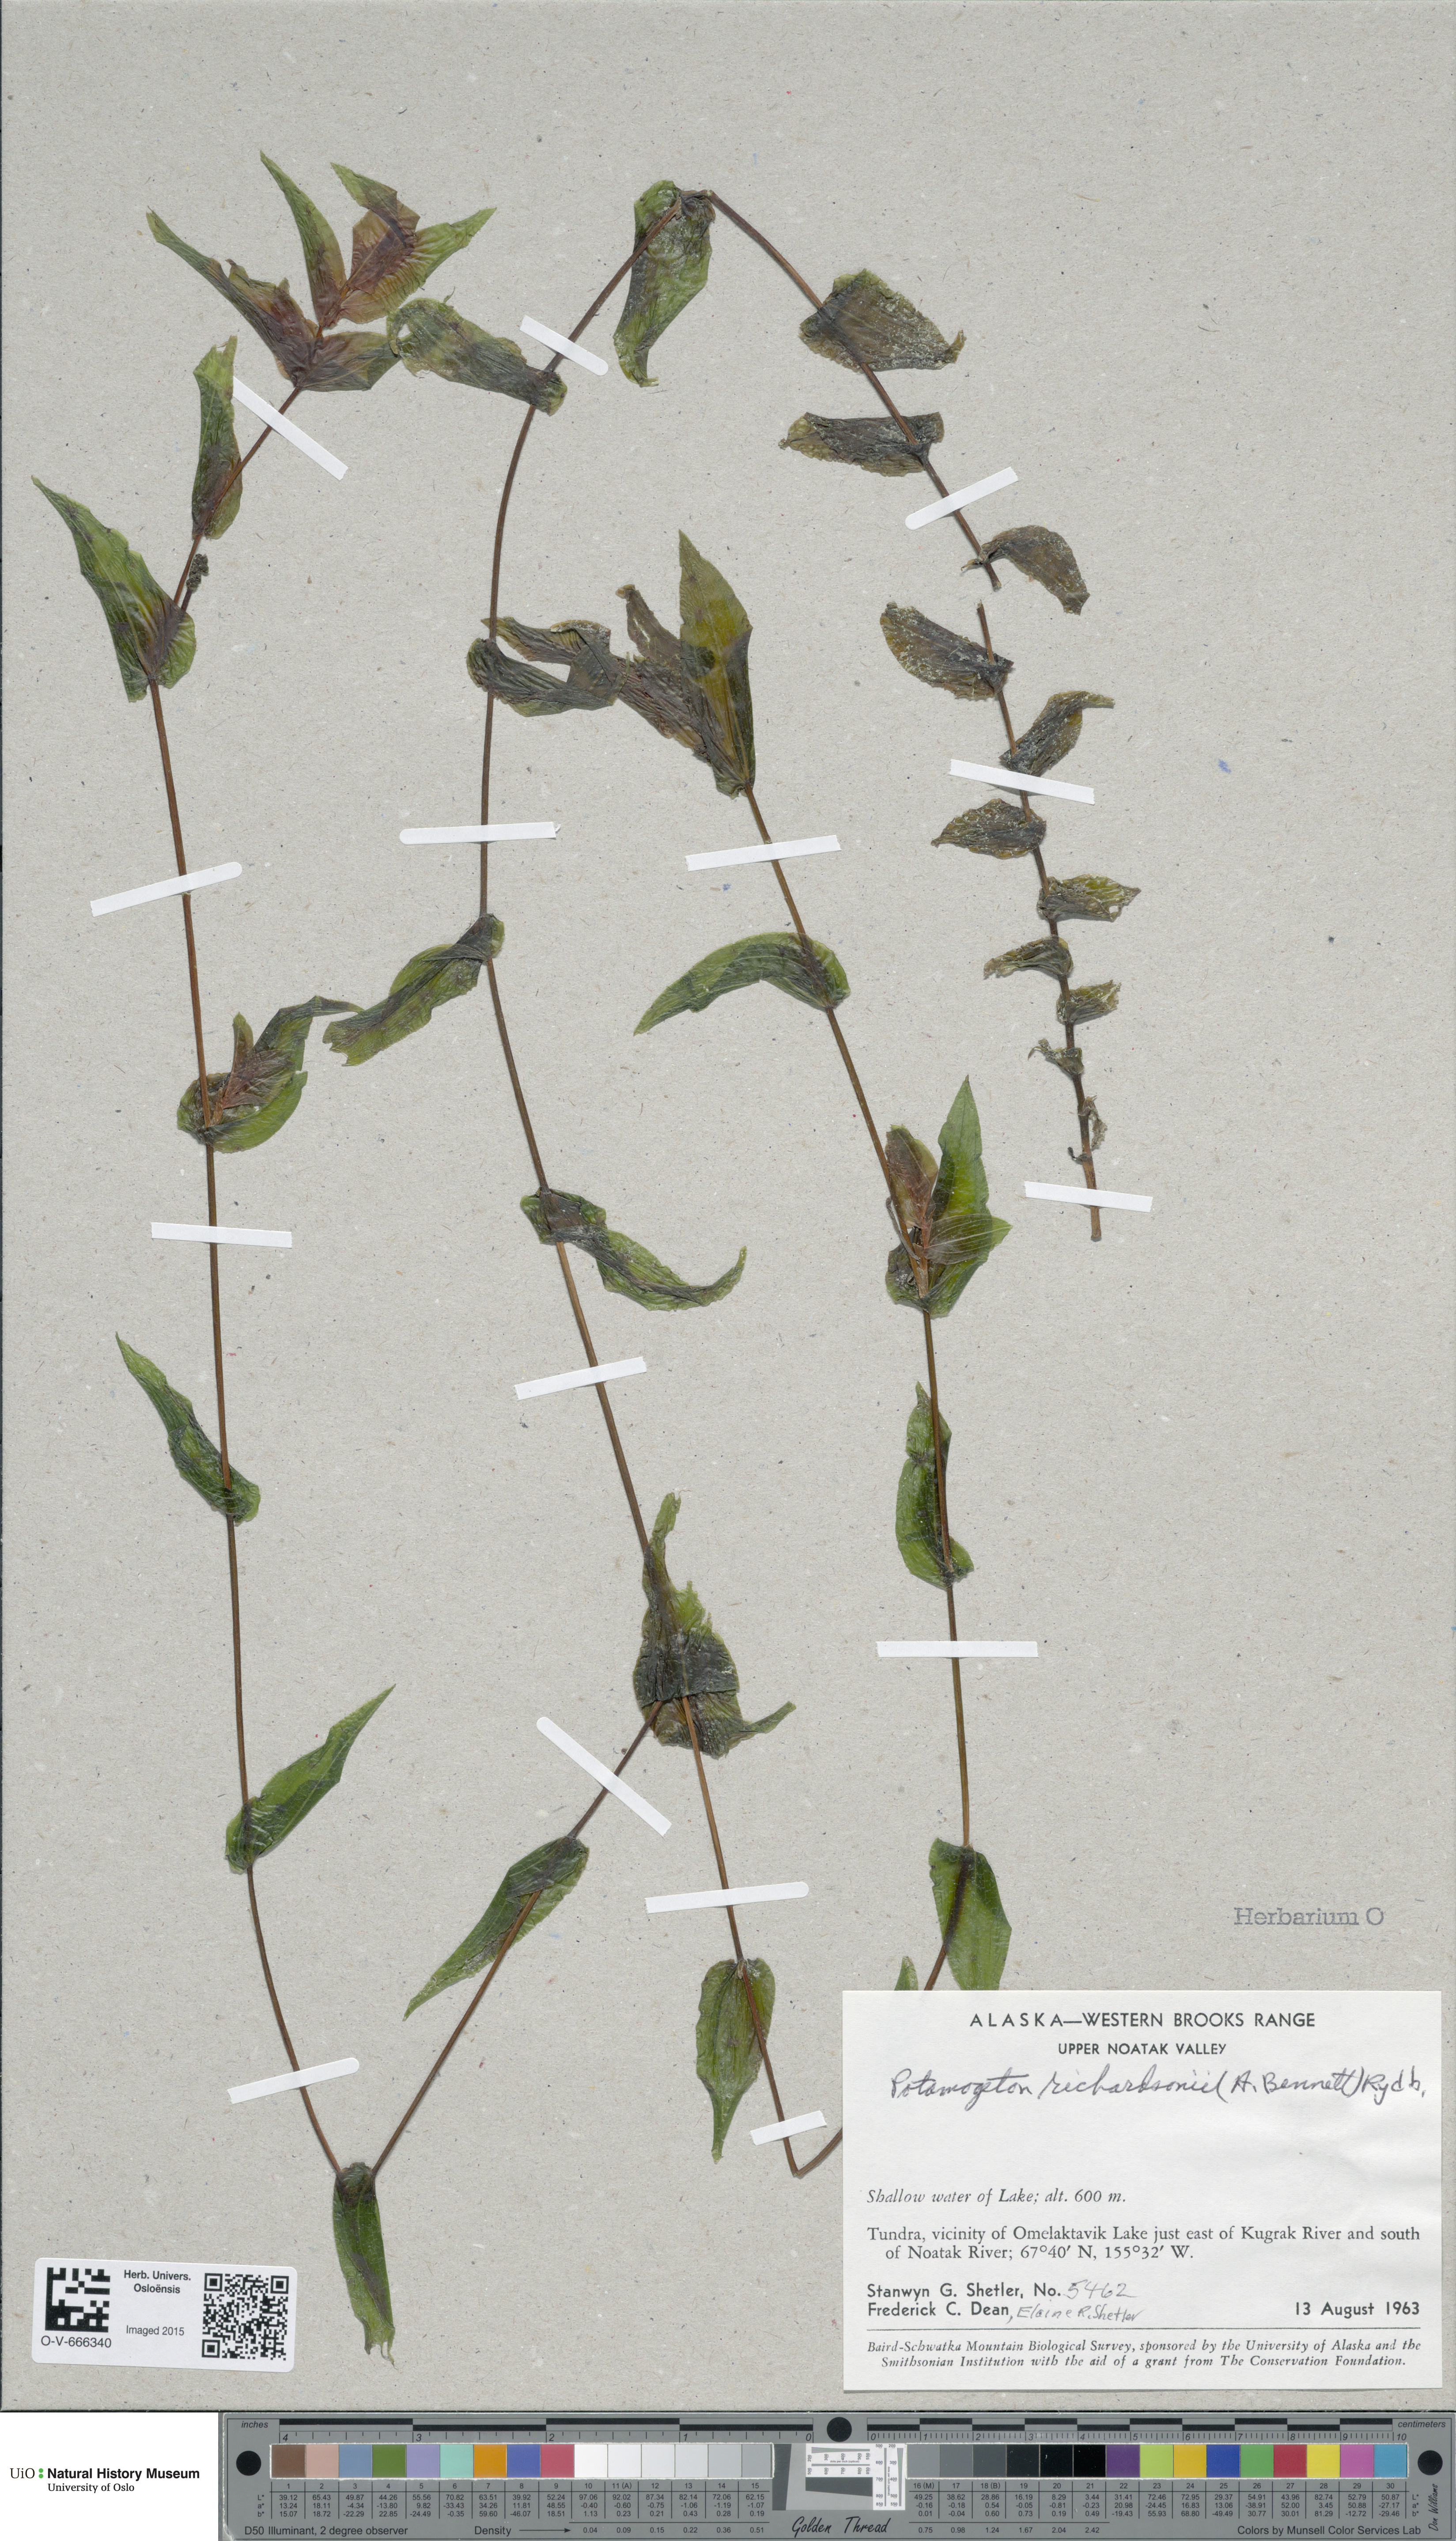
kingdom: Plantae
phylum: Tracheophyta
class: Liliopsida
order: Alismatales
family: Potamogetonaceae
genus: Potamogeton
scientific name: Potamogeton richardsonii
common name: Richardson's pondweed
